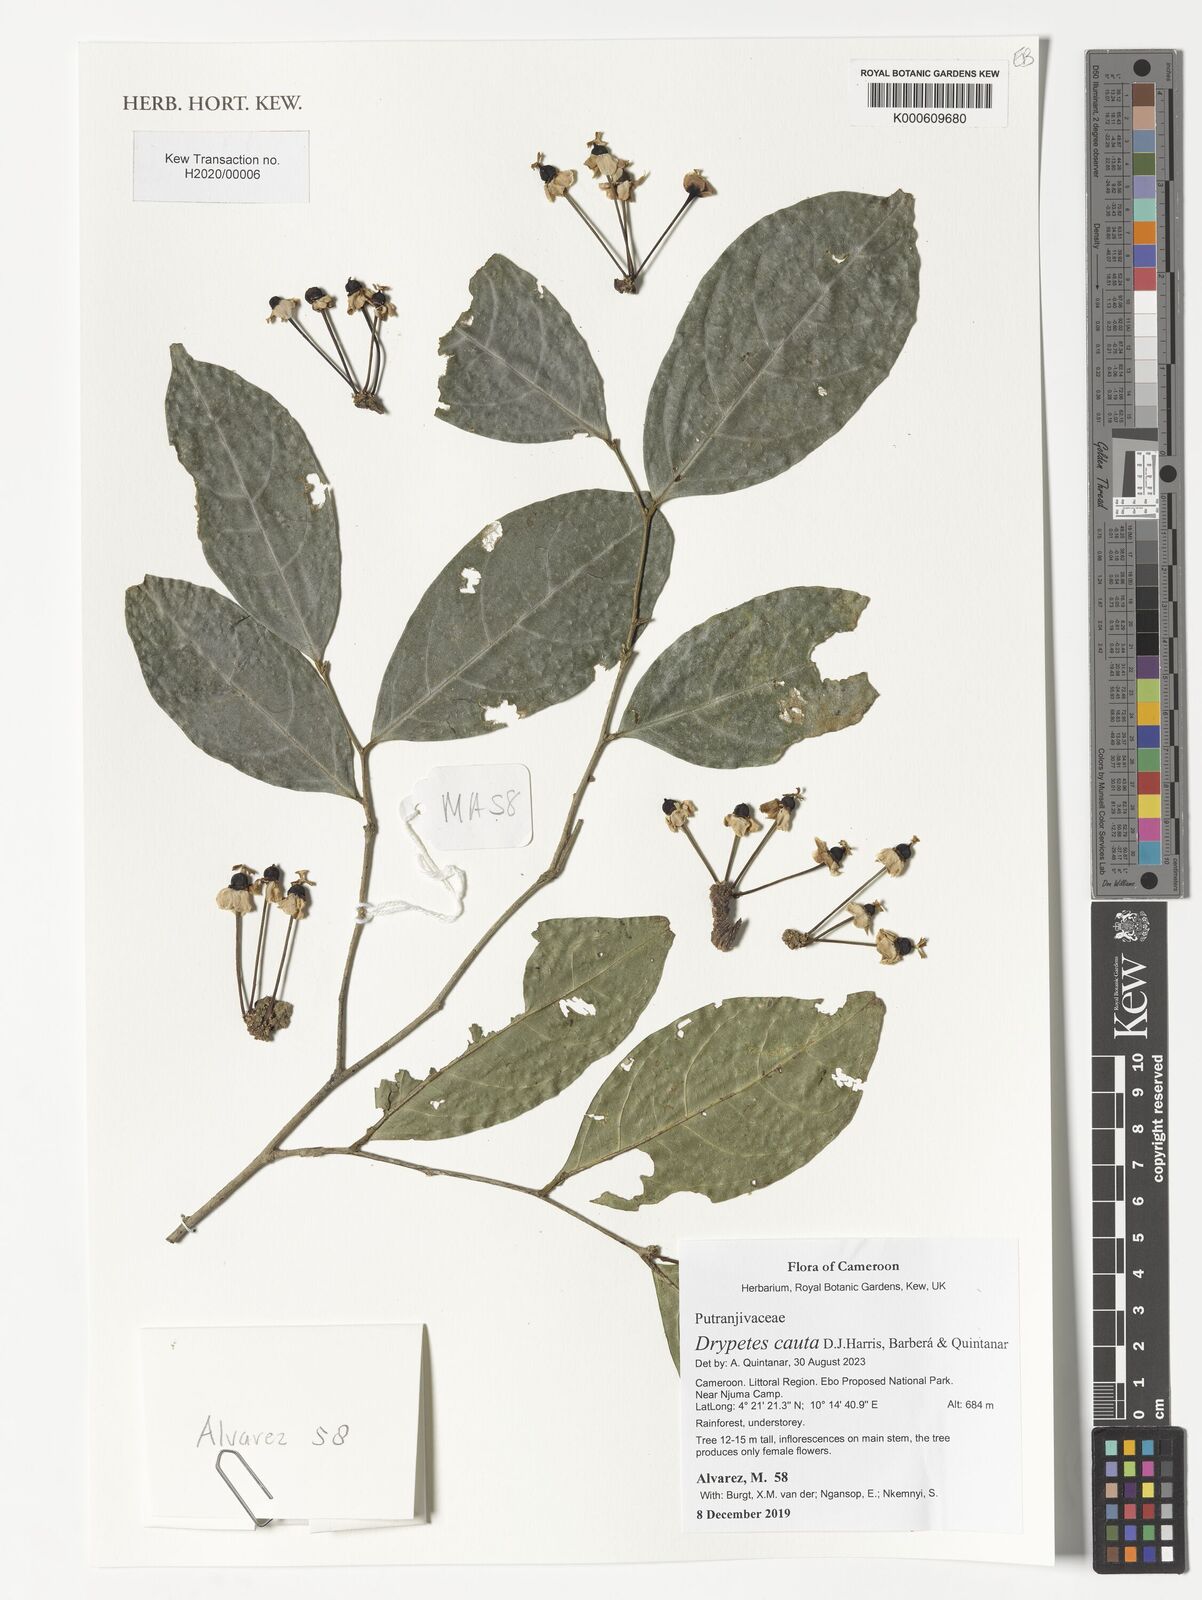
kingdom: Plantae
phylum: Tracheophyta
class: Magnoliopsida
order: Malpighiales
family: Putranjivaceae
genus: Drypetes
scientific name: Drypetes
